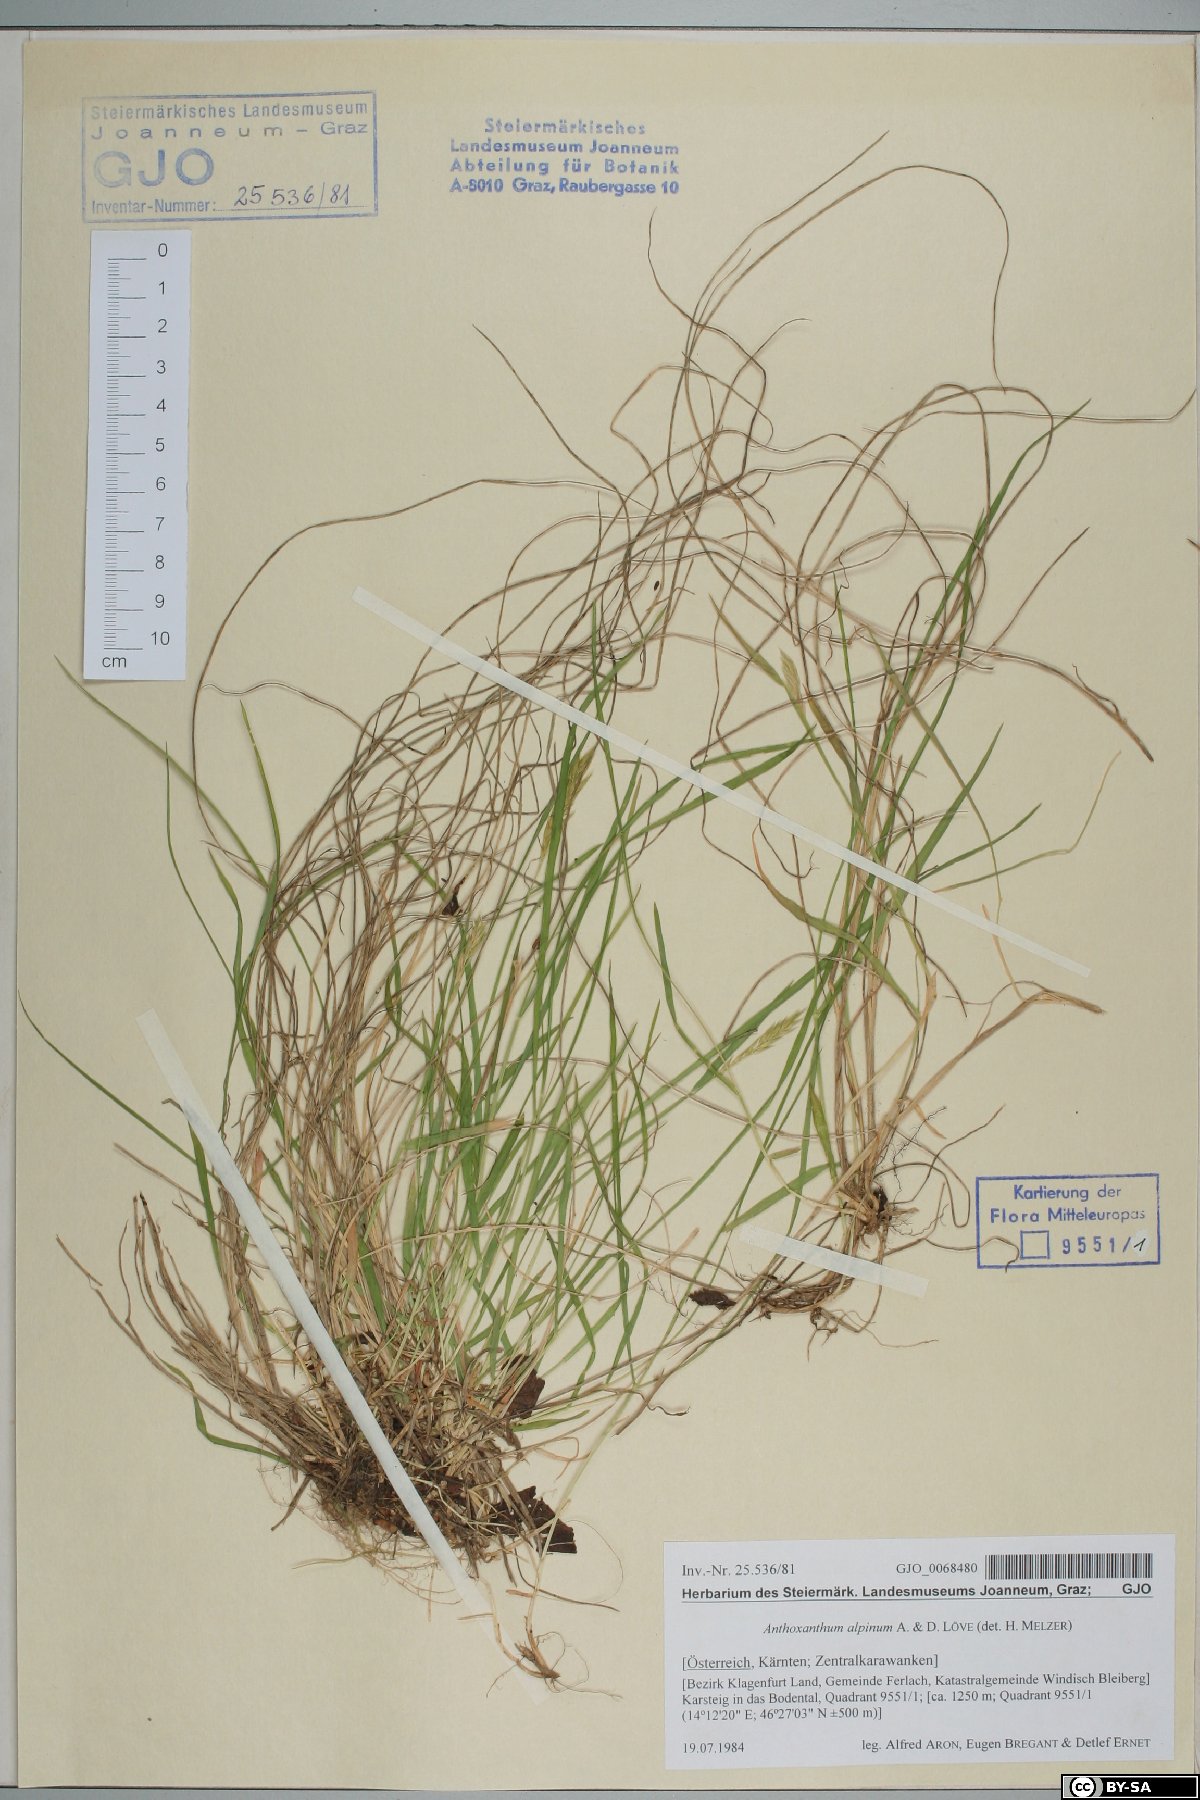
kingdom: Plantae
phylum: Tracheophyta
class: Liliopsida
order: Poales
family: Poaceae
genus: Anthoxanthum
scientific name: Anthoxanthum nipponicum
